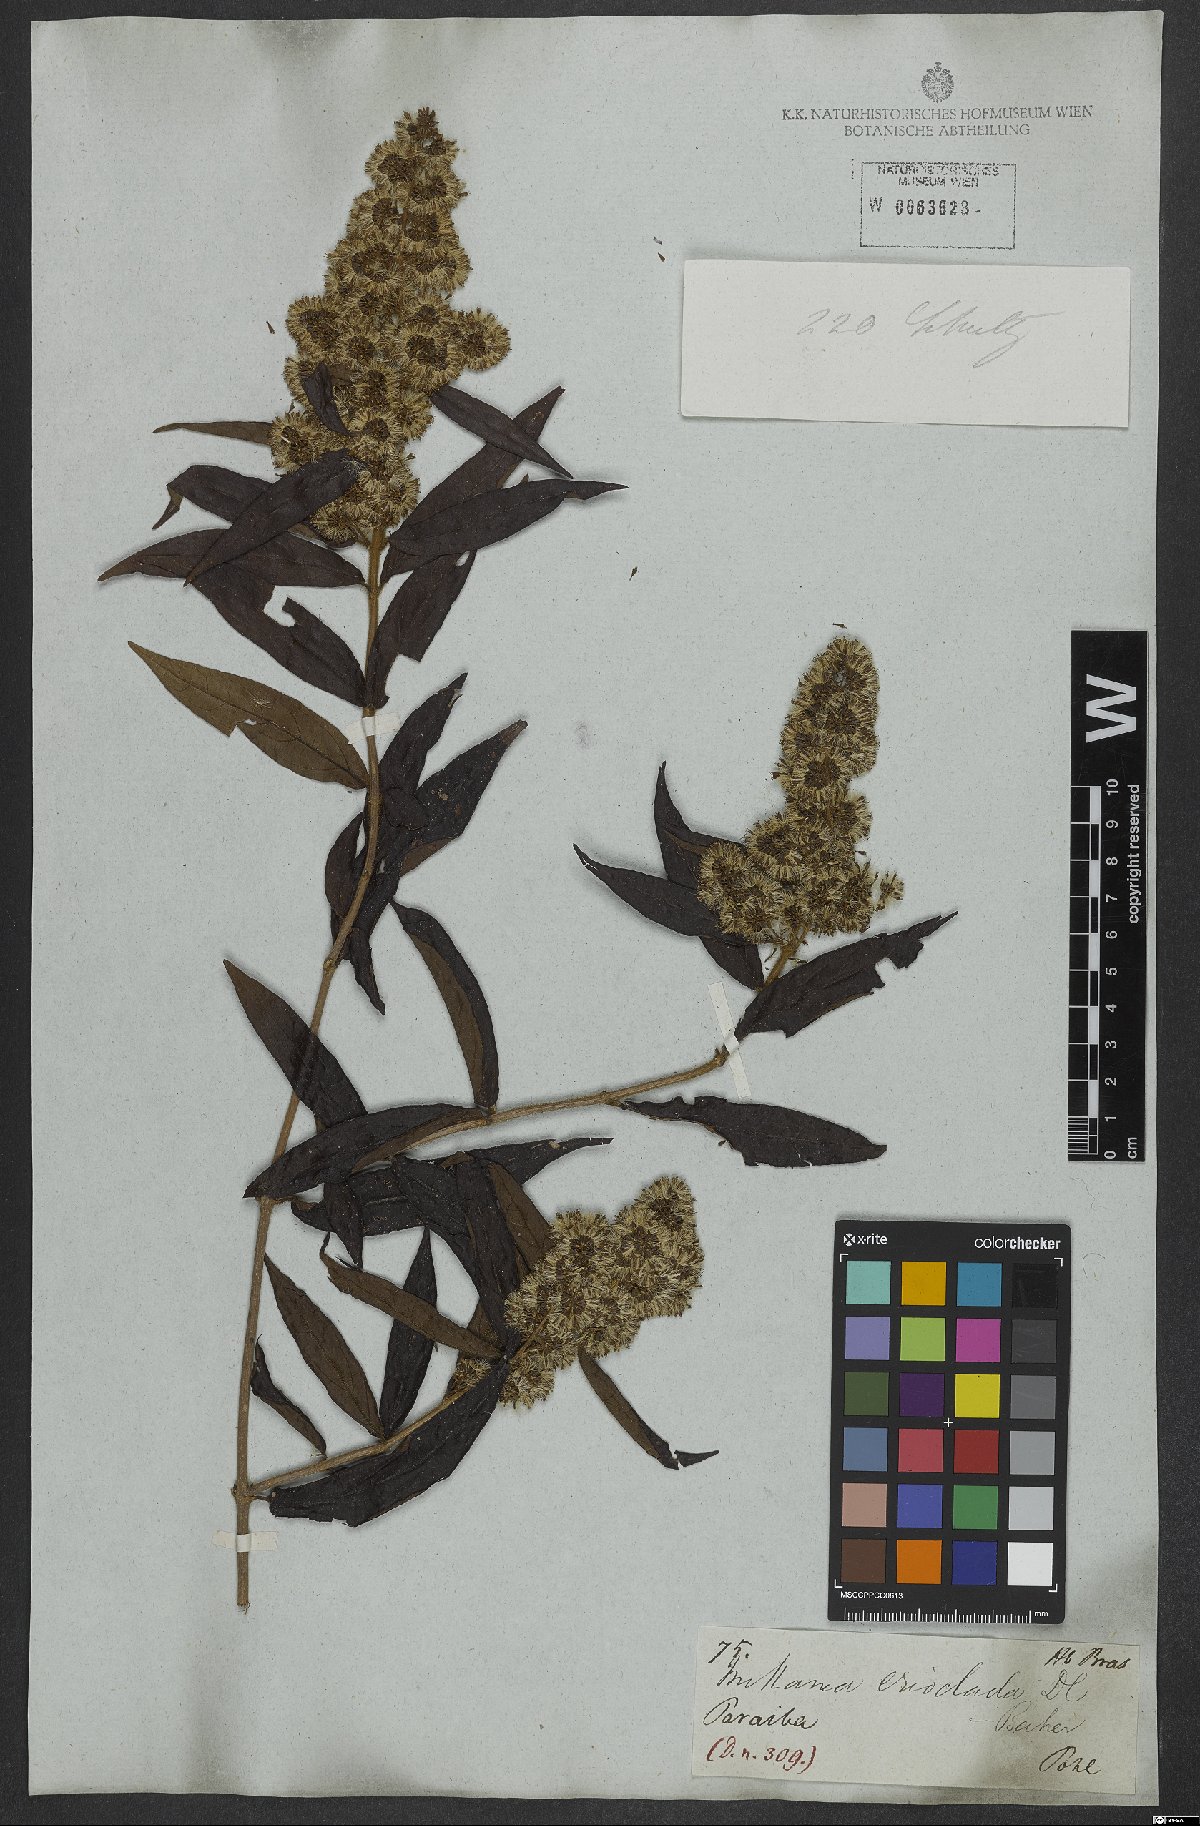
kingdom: Plantae
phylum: Tracheophyta
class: Magnoliopsida
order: Asterales
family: Asteraceae
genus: Mikania
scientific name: Mikania erioclada
